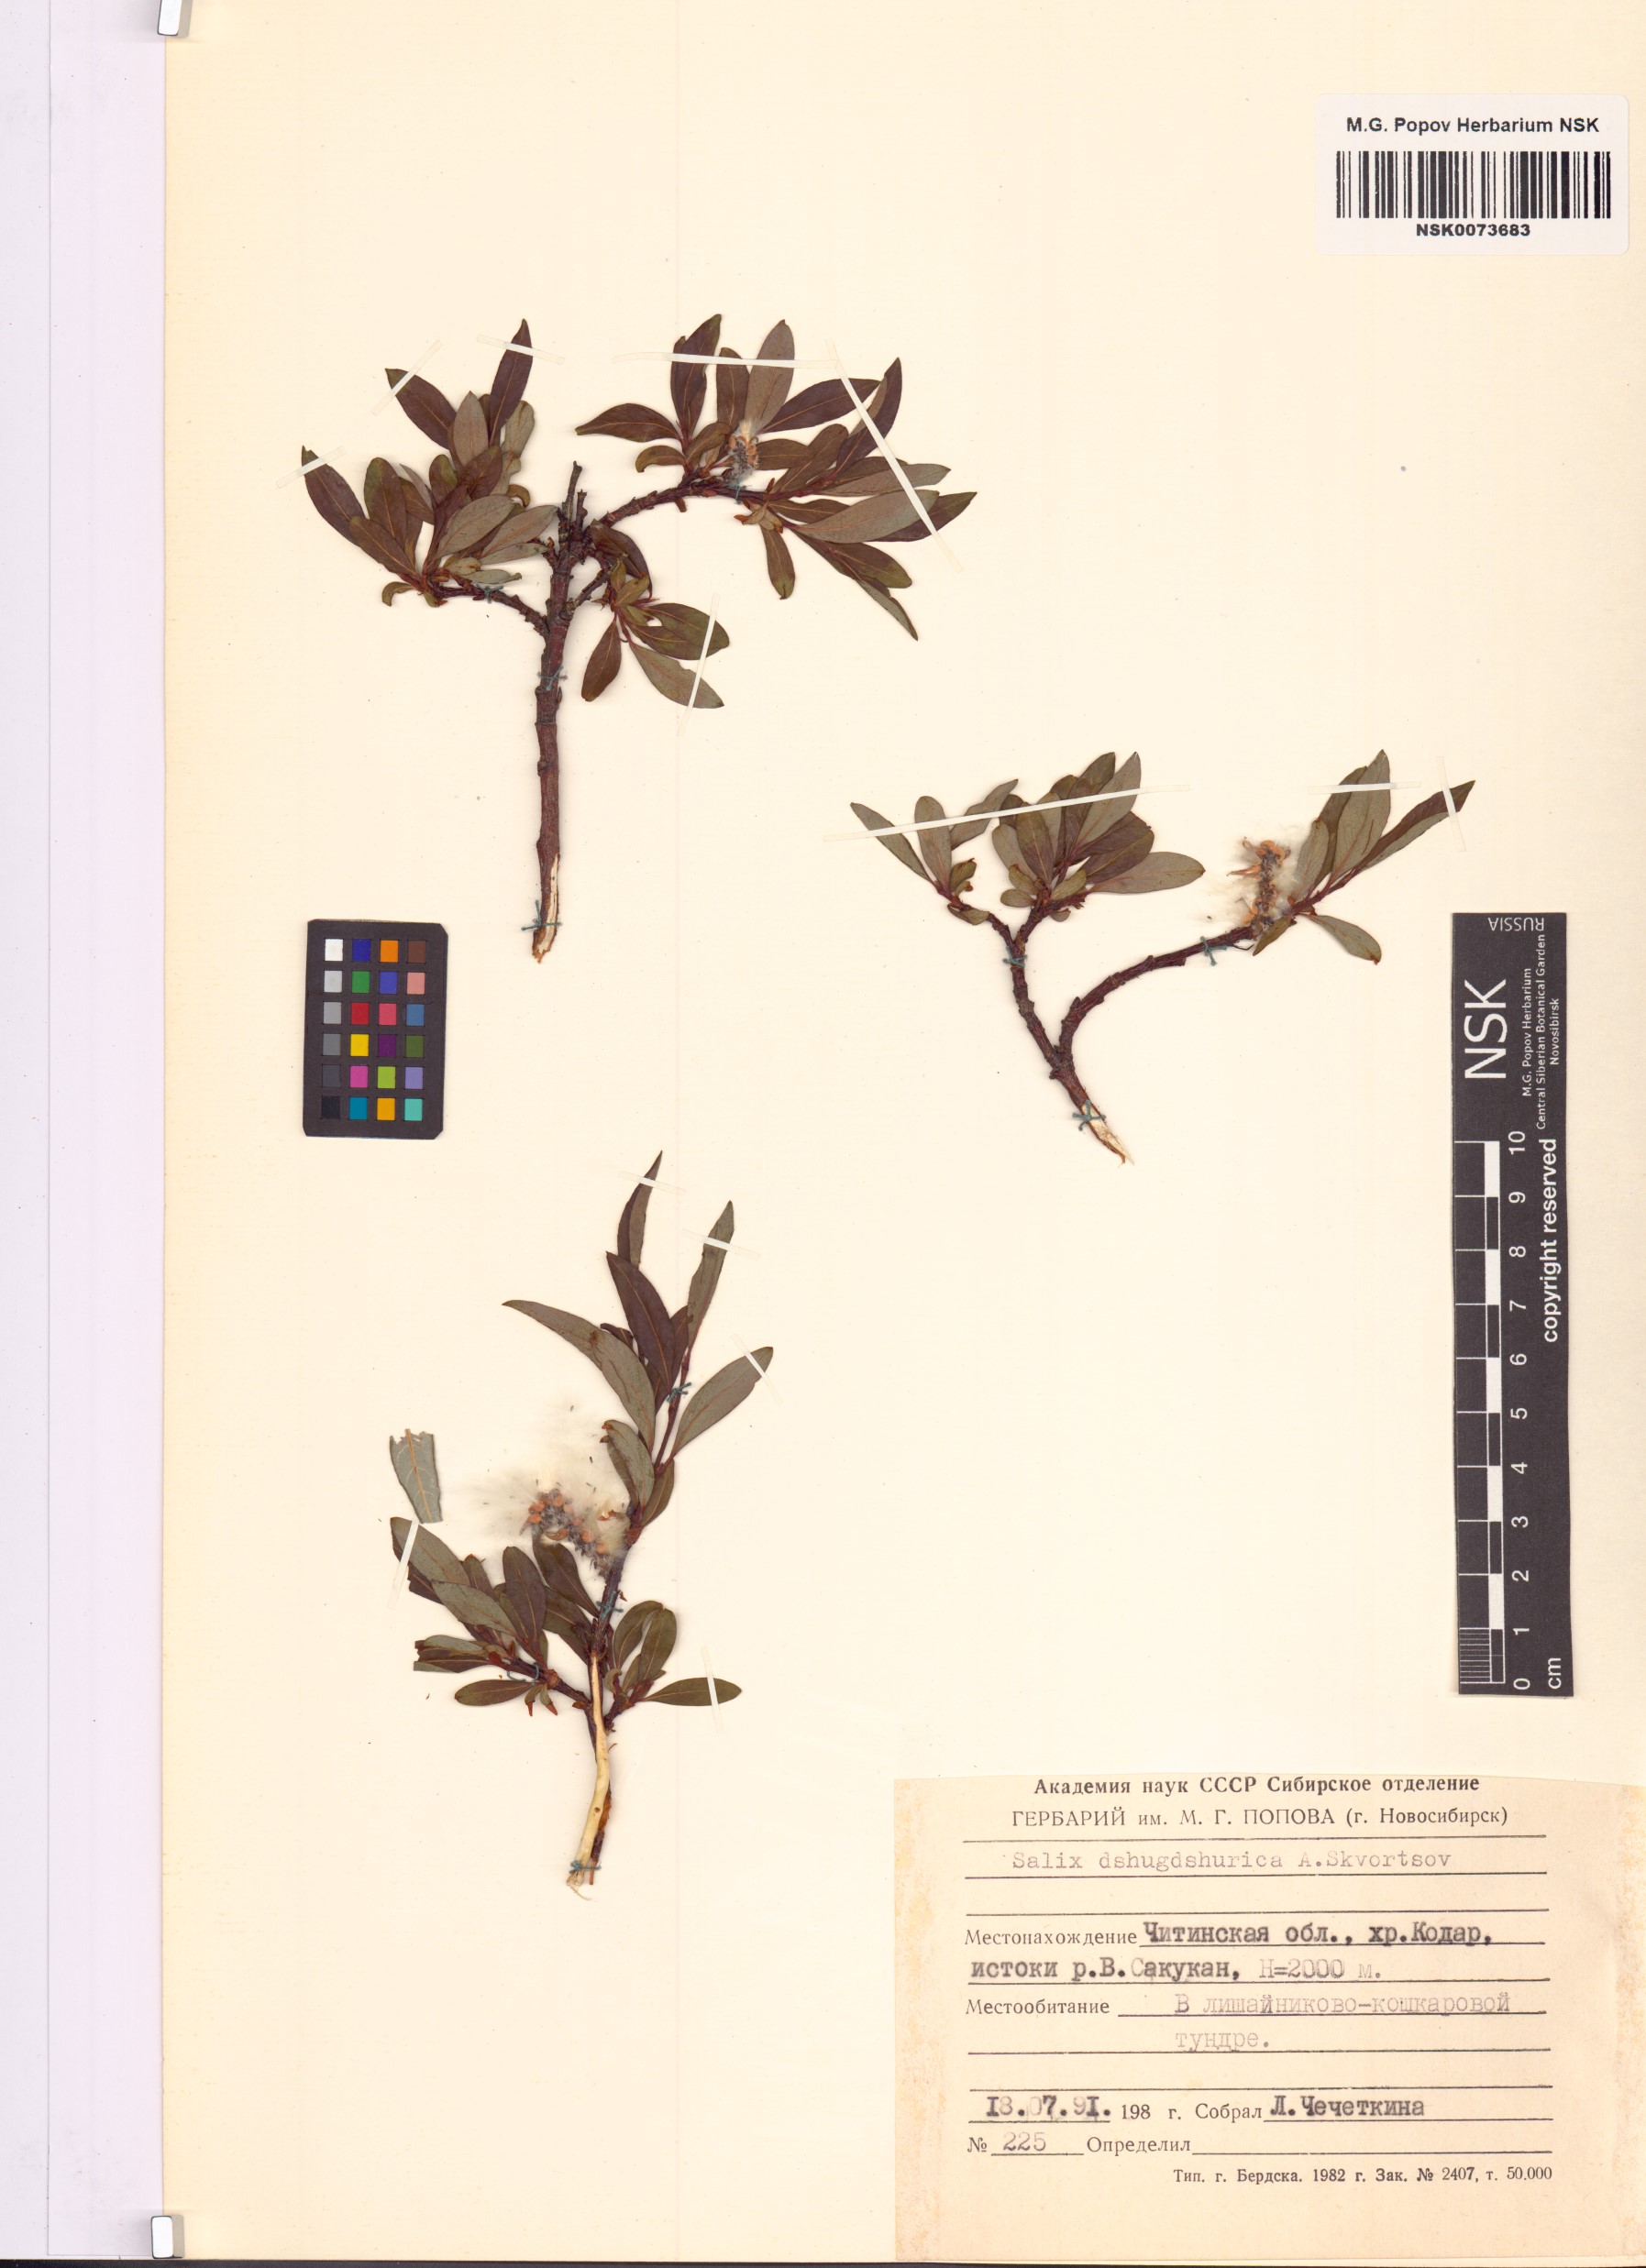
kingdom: Plantae
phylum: Tracheophyta
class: Magnoliopsida
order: Malpighiales
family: Salicaceae
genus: Salix
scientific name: Salix dshugdshurica
